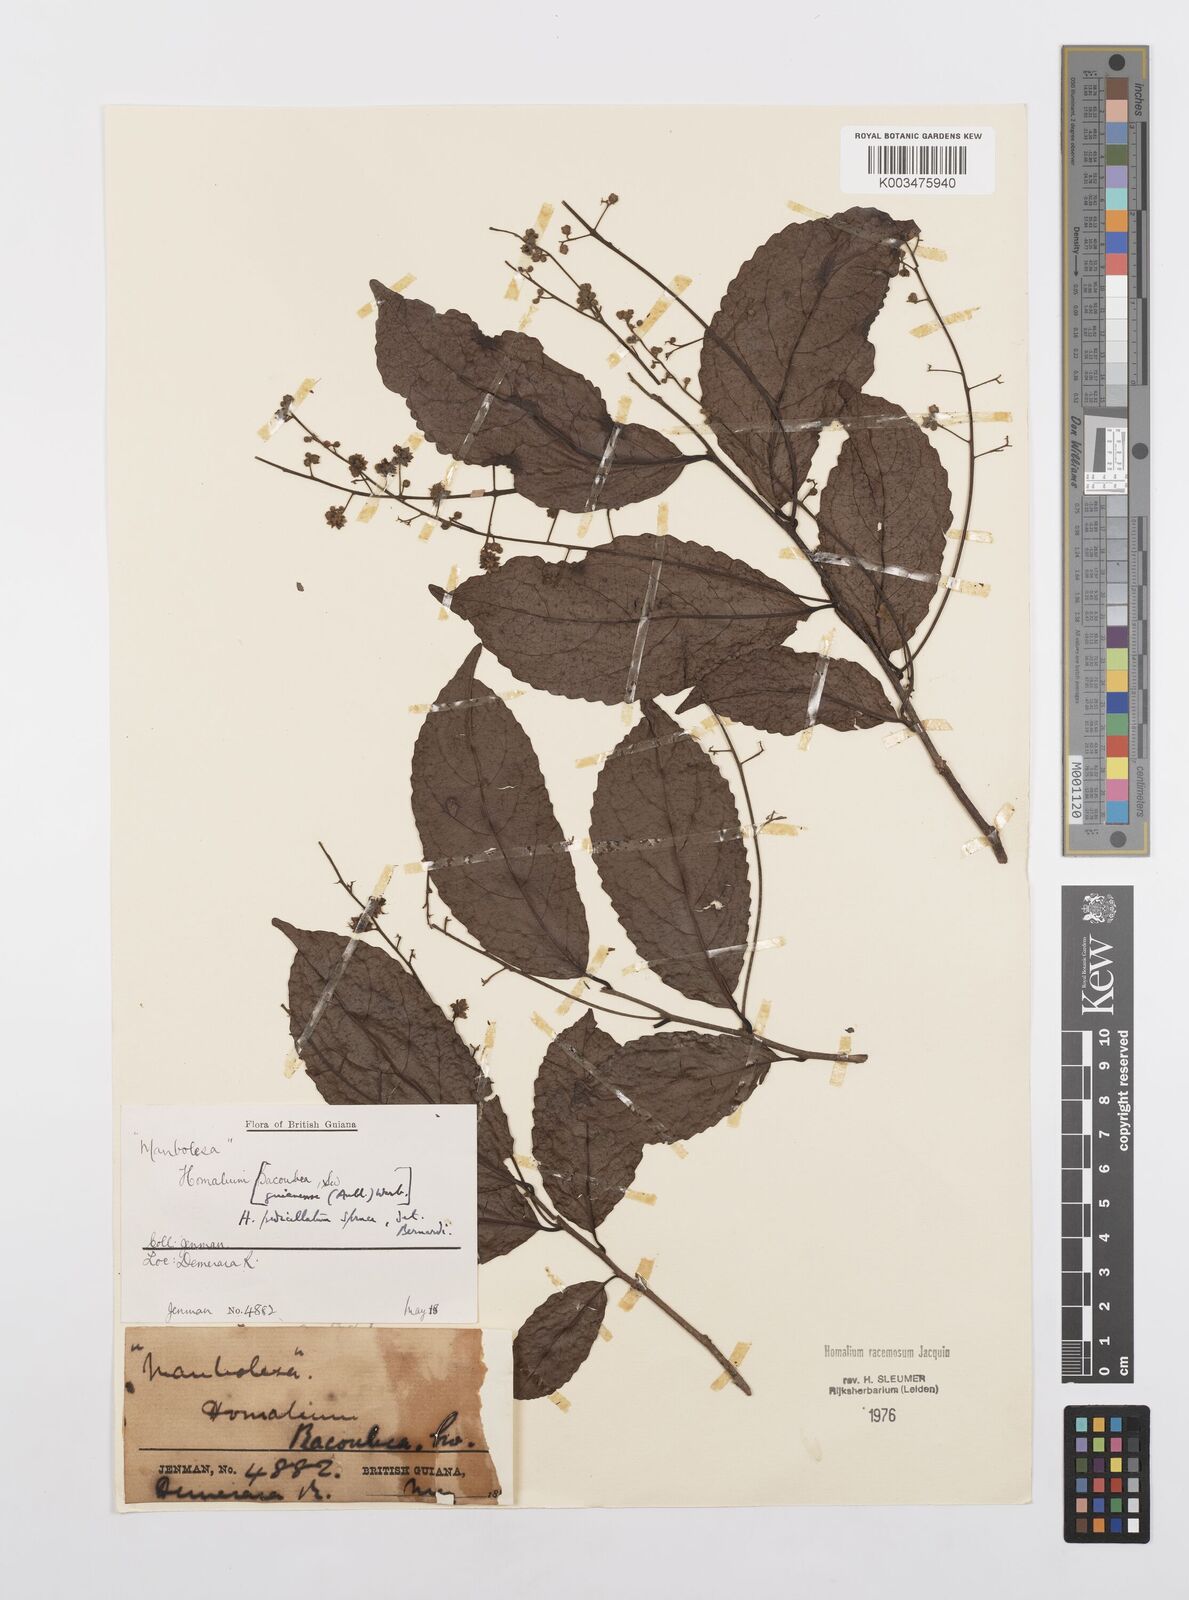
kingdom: Plantae
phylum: Tracheophyta
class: Magnoliopsida
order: Malpighiales
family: Salicaceae
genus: Homalium
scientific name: Homalium racemosum
